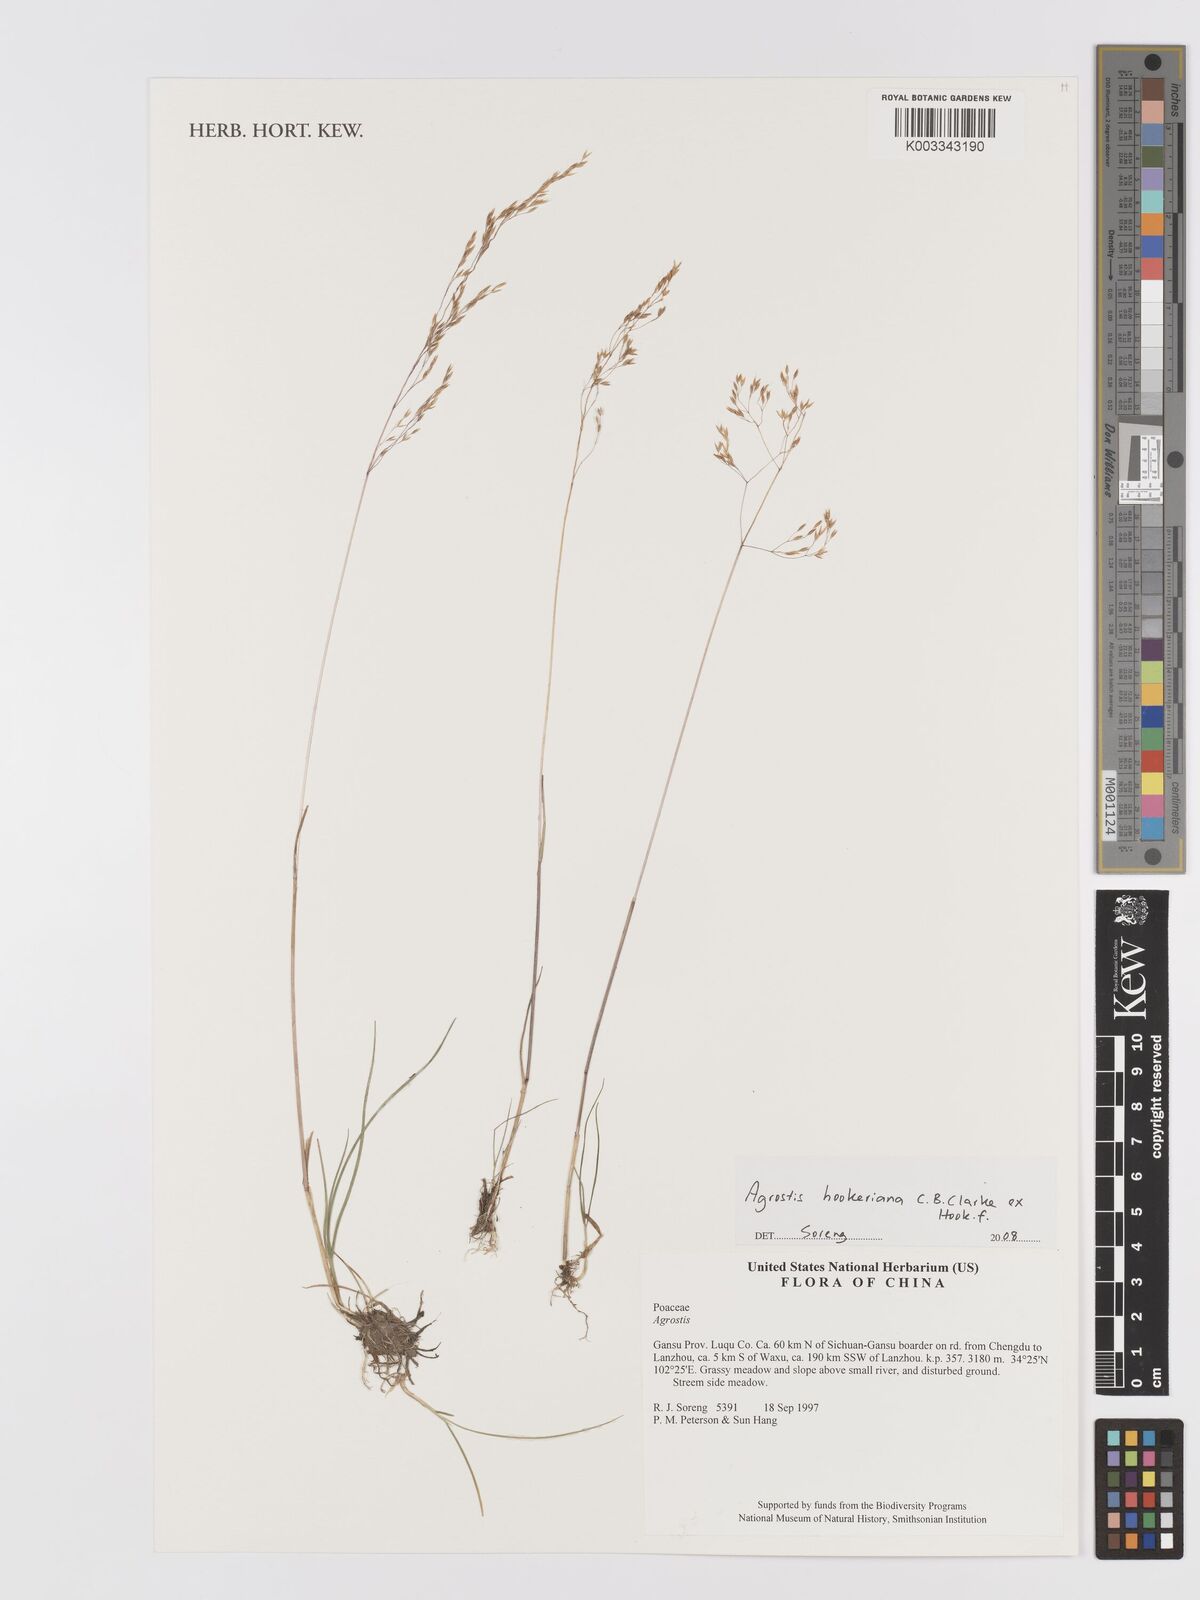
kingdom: Plantae
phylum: Tracheophyta
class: Liliopsida
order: Poales
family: Poaceae
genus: Agrostis
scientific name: Agrostis hookeriana
